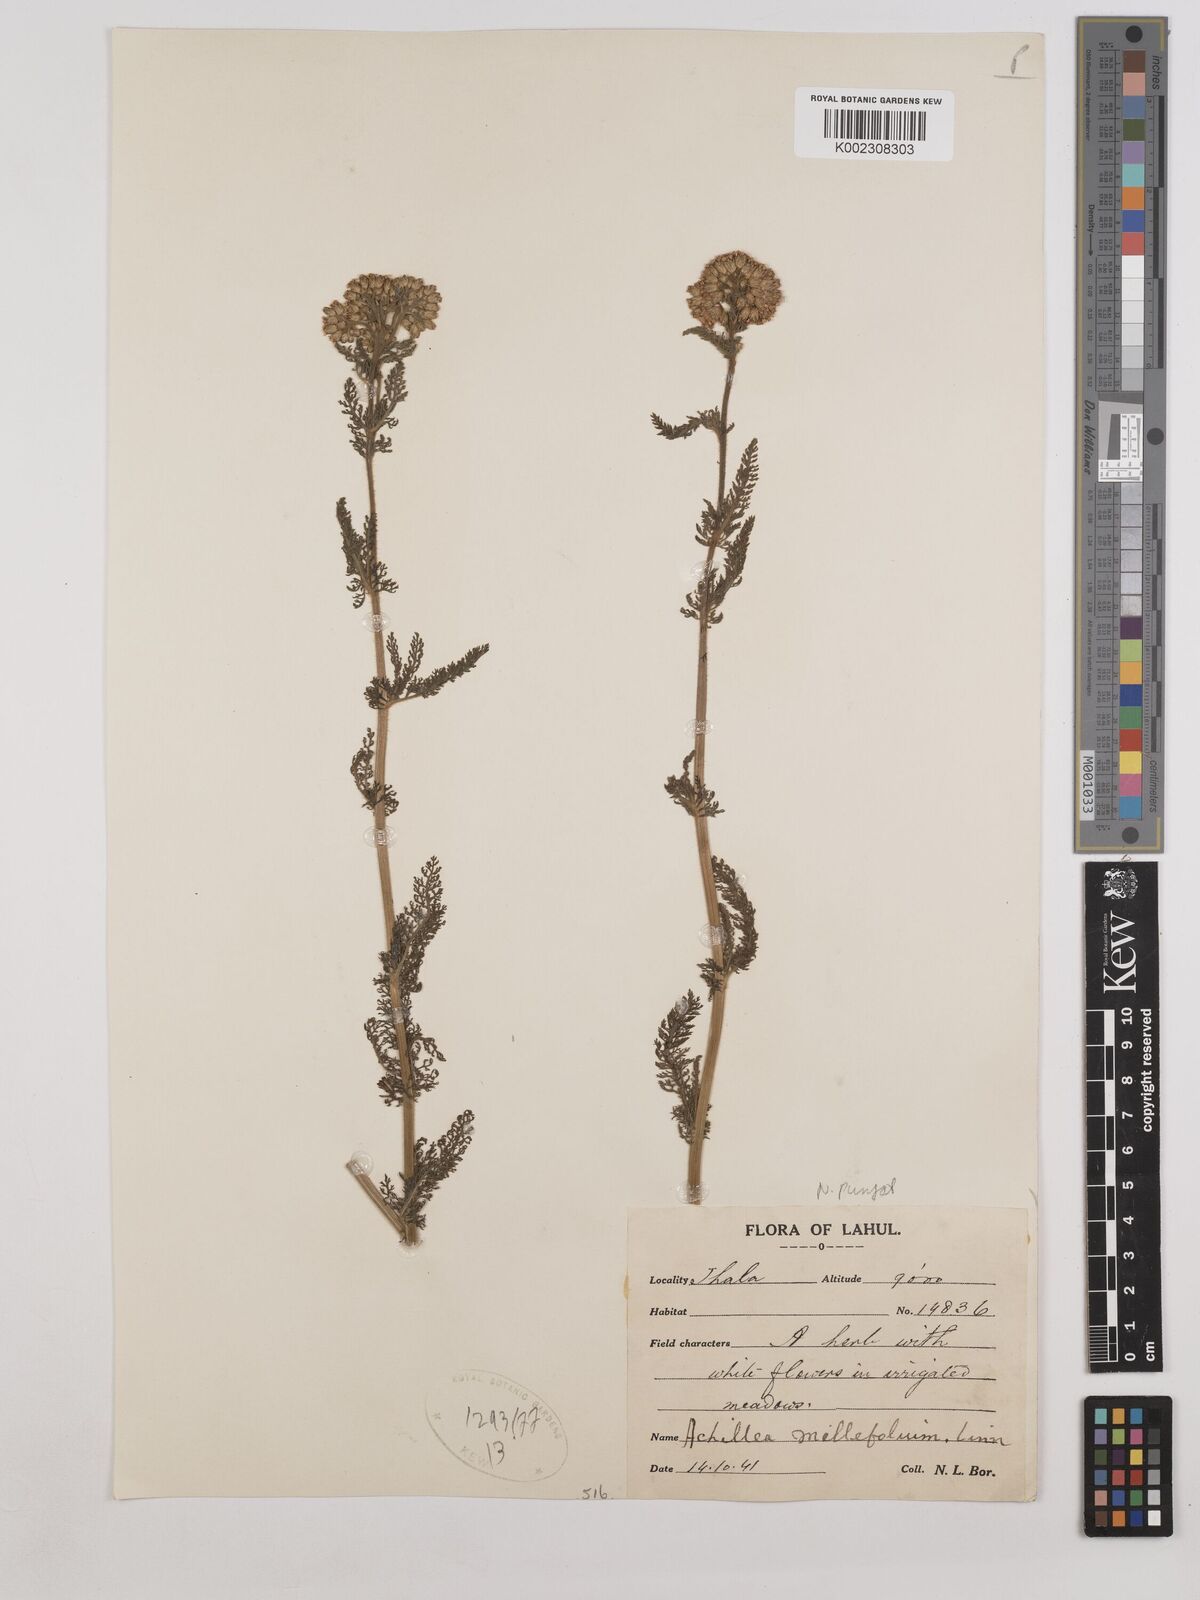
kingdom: Plantae
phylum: Tracheophyta
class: Magnoliopsida
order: Asterales
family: Asteraceae
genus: Achillea
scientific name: Achillea millefolium
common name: Yarrow
